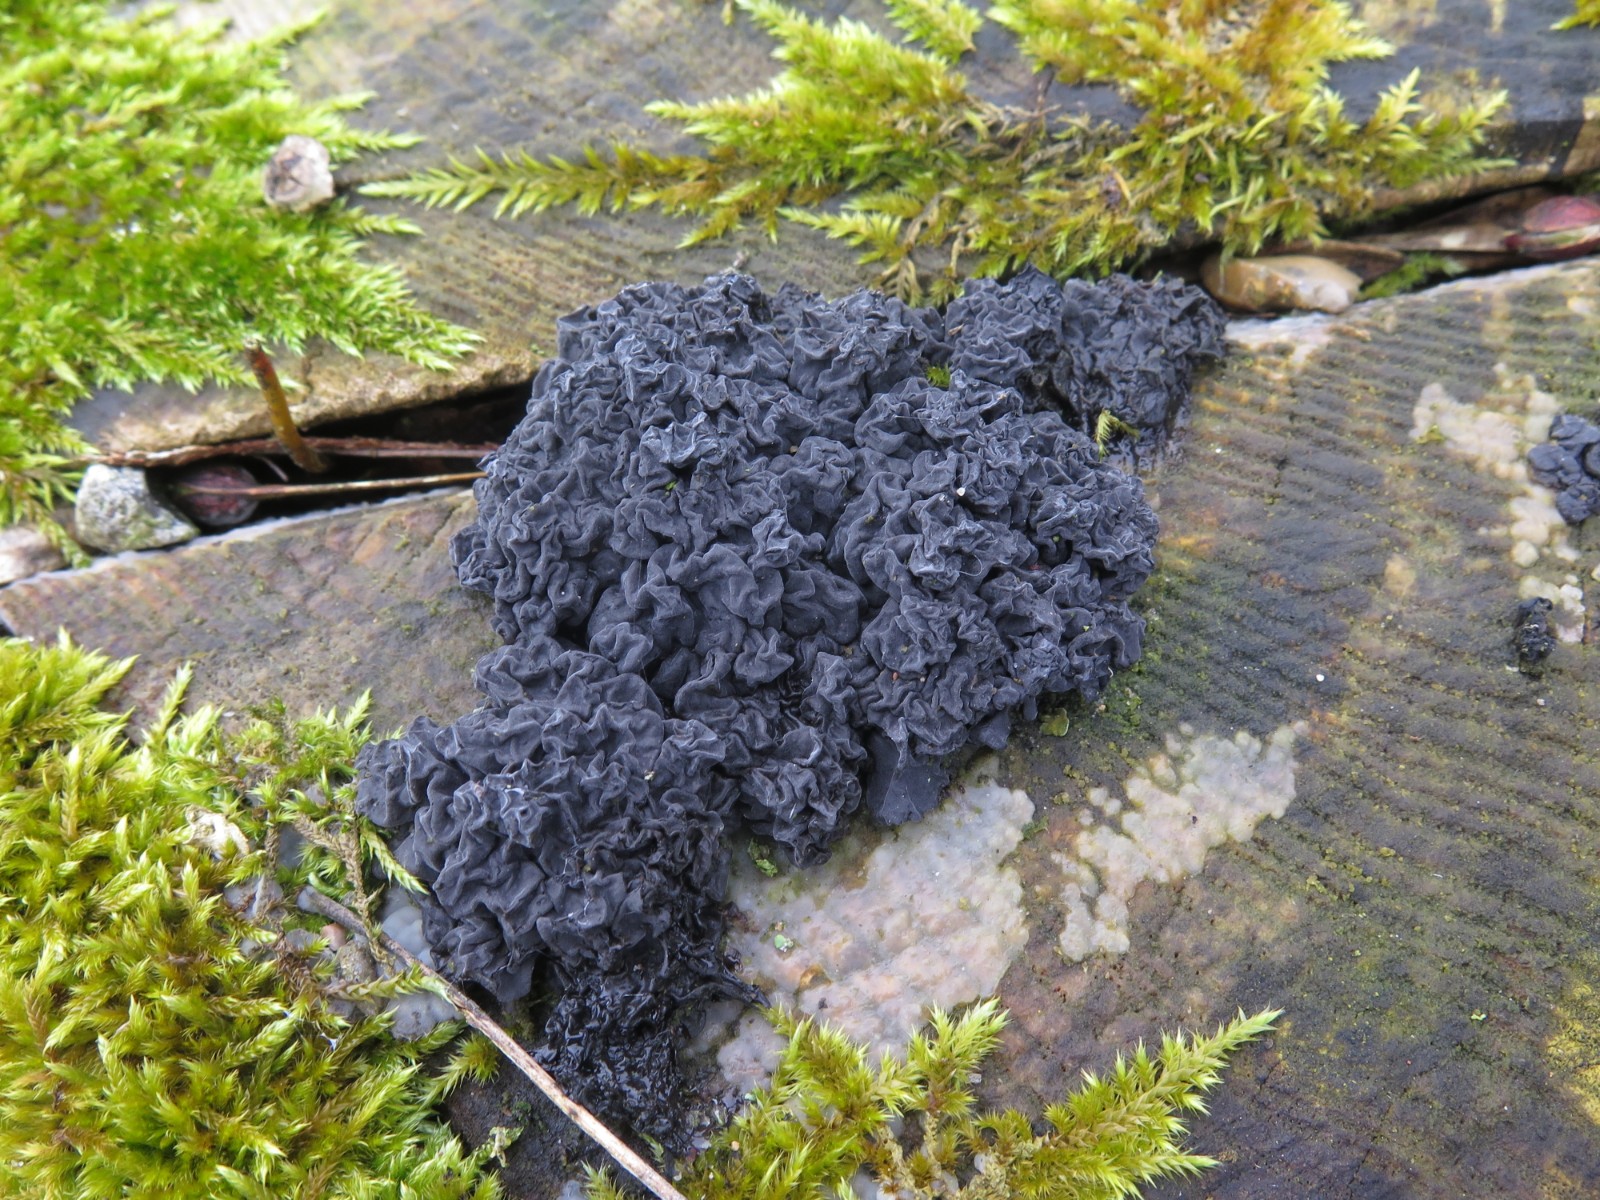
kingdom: Fungi
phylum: Basidiomycota
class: Agaricomycetes
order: Auriculariales
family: Auriculariaceae
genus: Exidia
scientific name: Exidia nigricans
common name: almindelig bævretop
